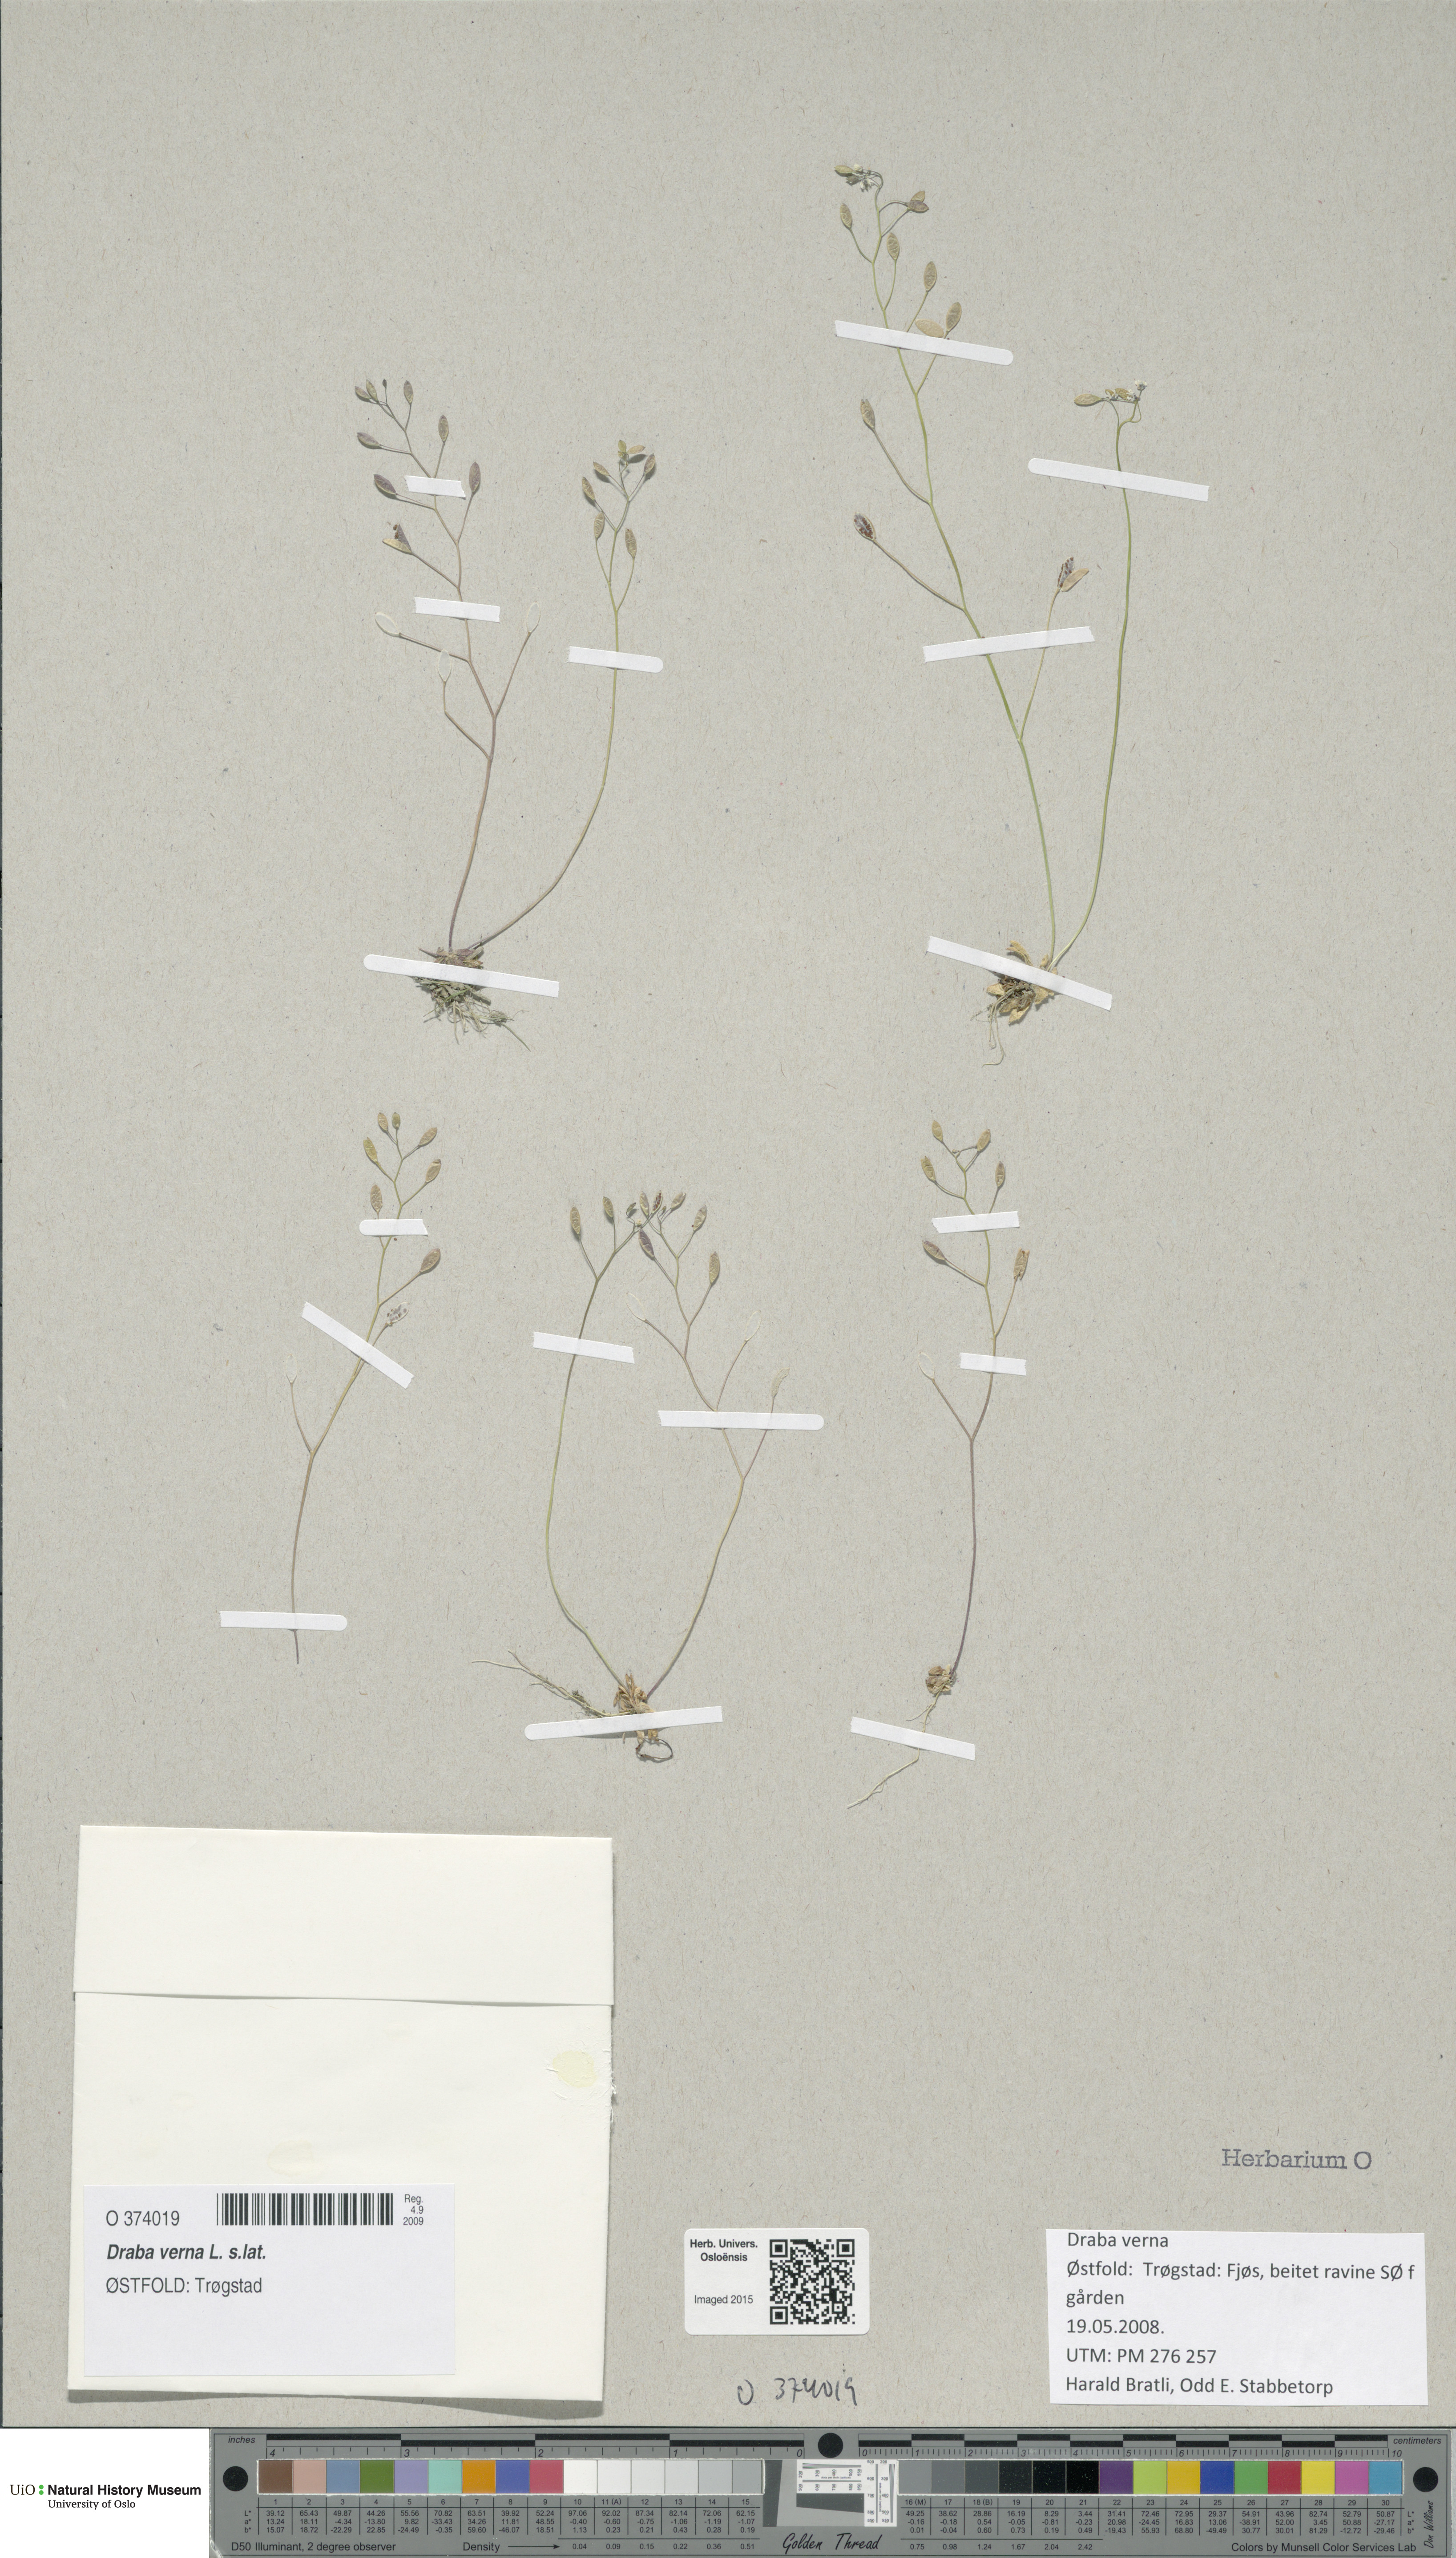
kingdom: Plantae
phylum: Tracheophyta
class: Magnoliopsida
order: Brassicales
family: Brassicaceae
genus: Draba
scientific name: Draba verna
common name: Spring draba
